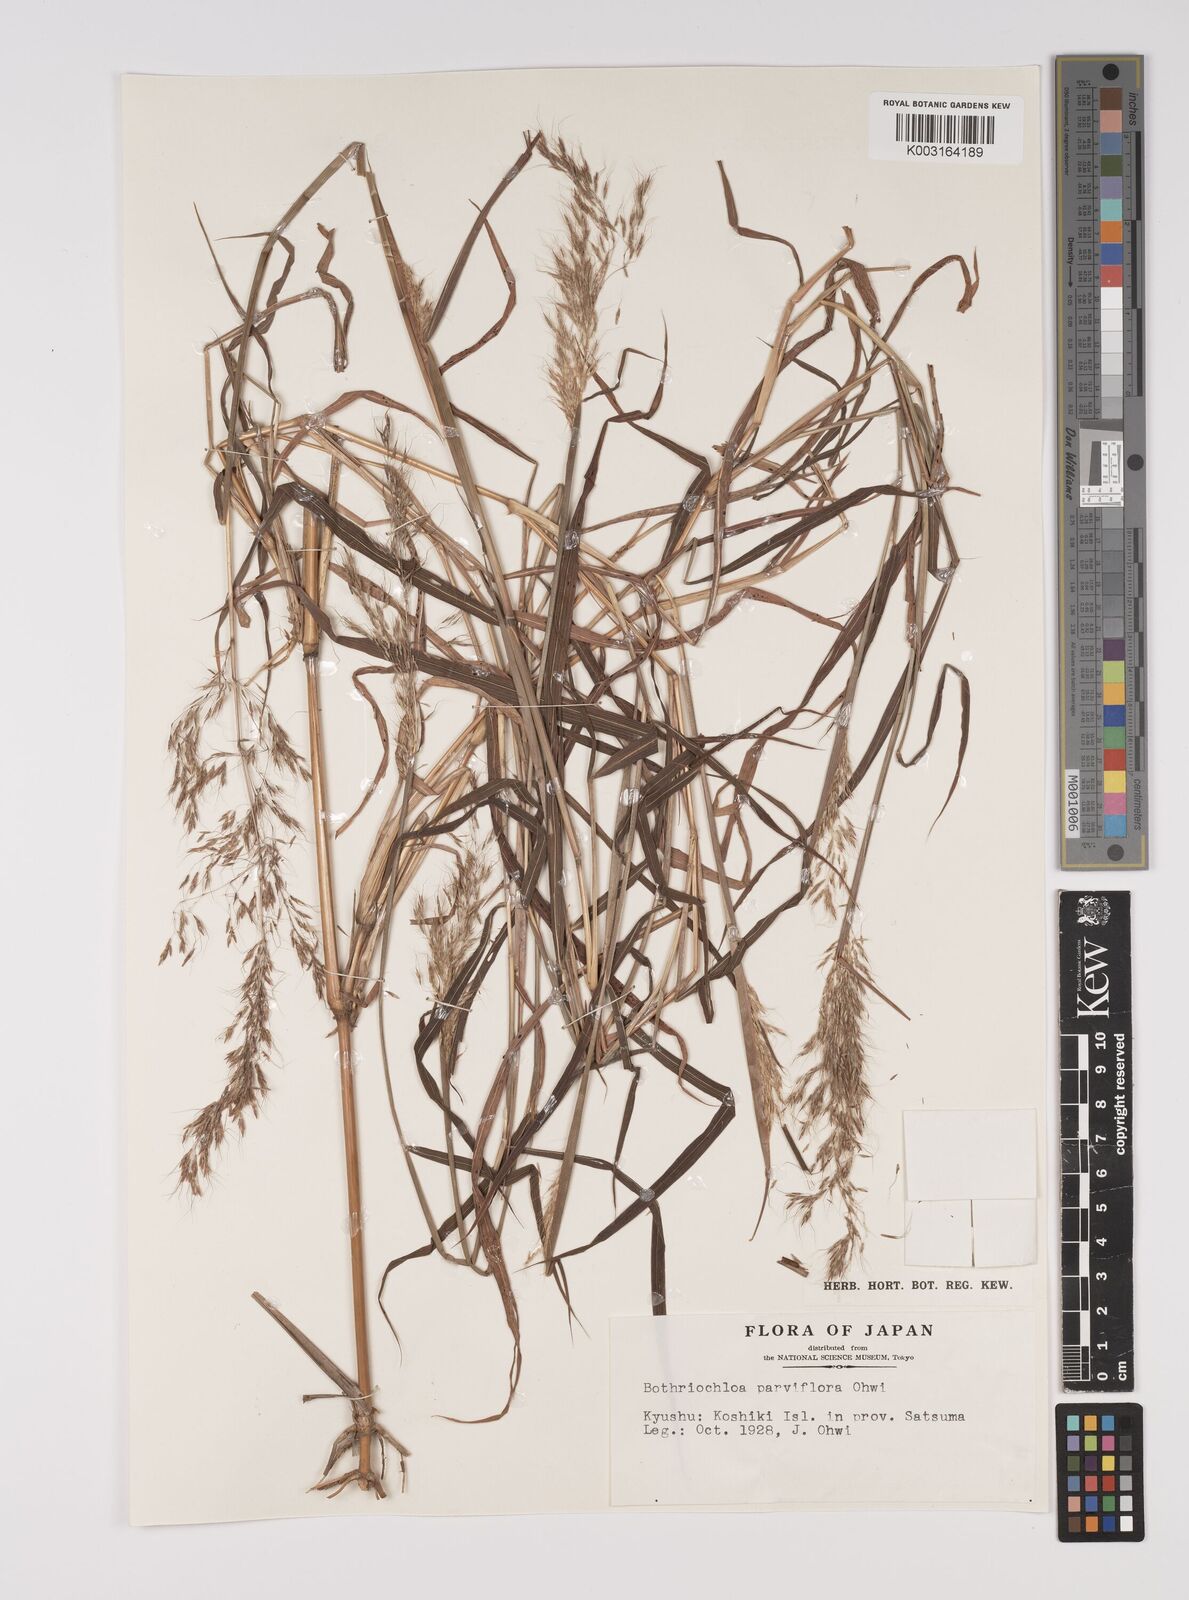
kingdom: Plantae
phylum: Tracheophyta
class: Liliopsida
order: Poales
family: Poaceae
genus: Capillipedium
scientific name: Capillipedium parviflorum
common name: Golden-beard
